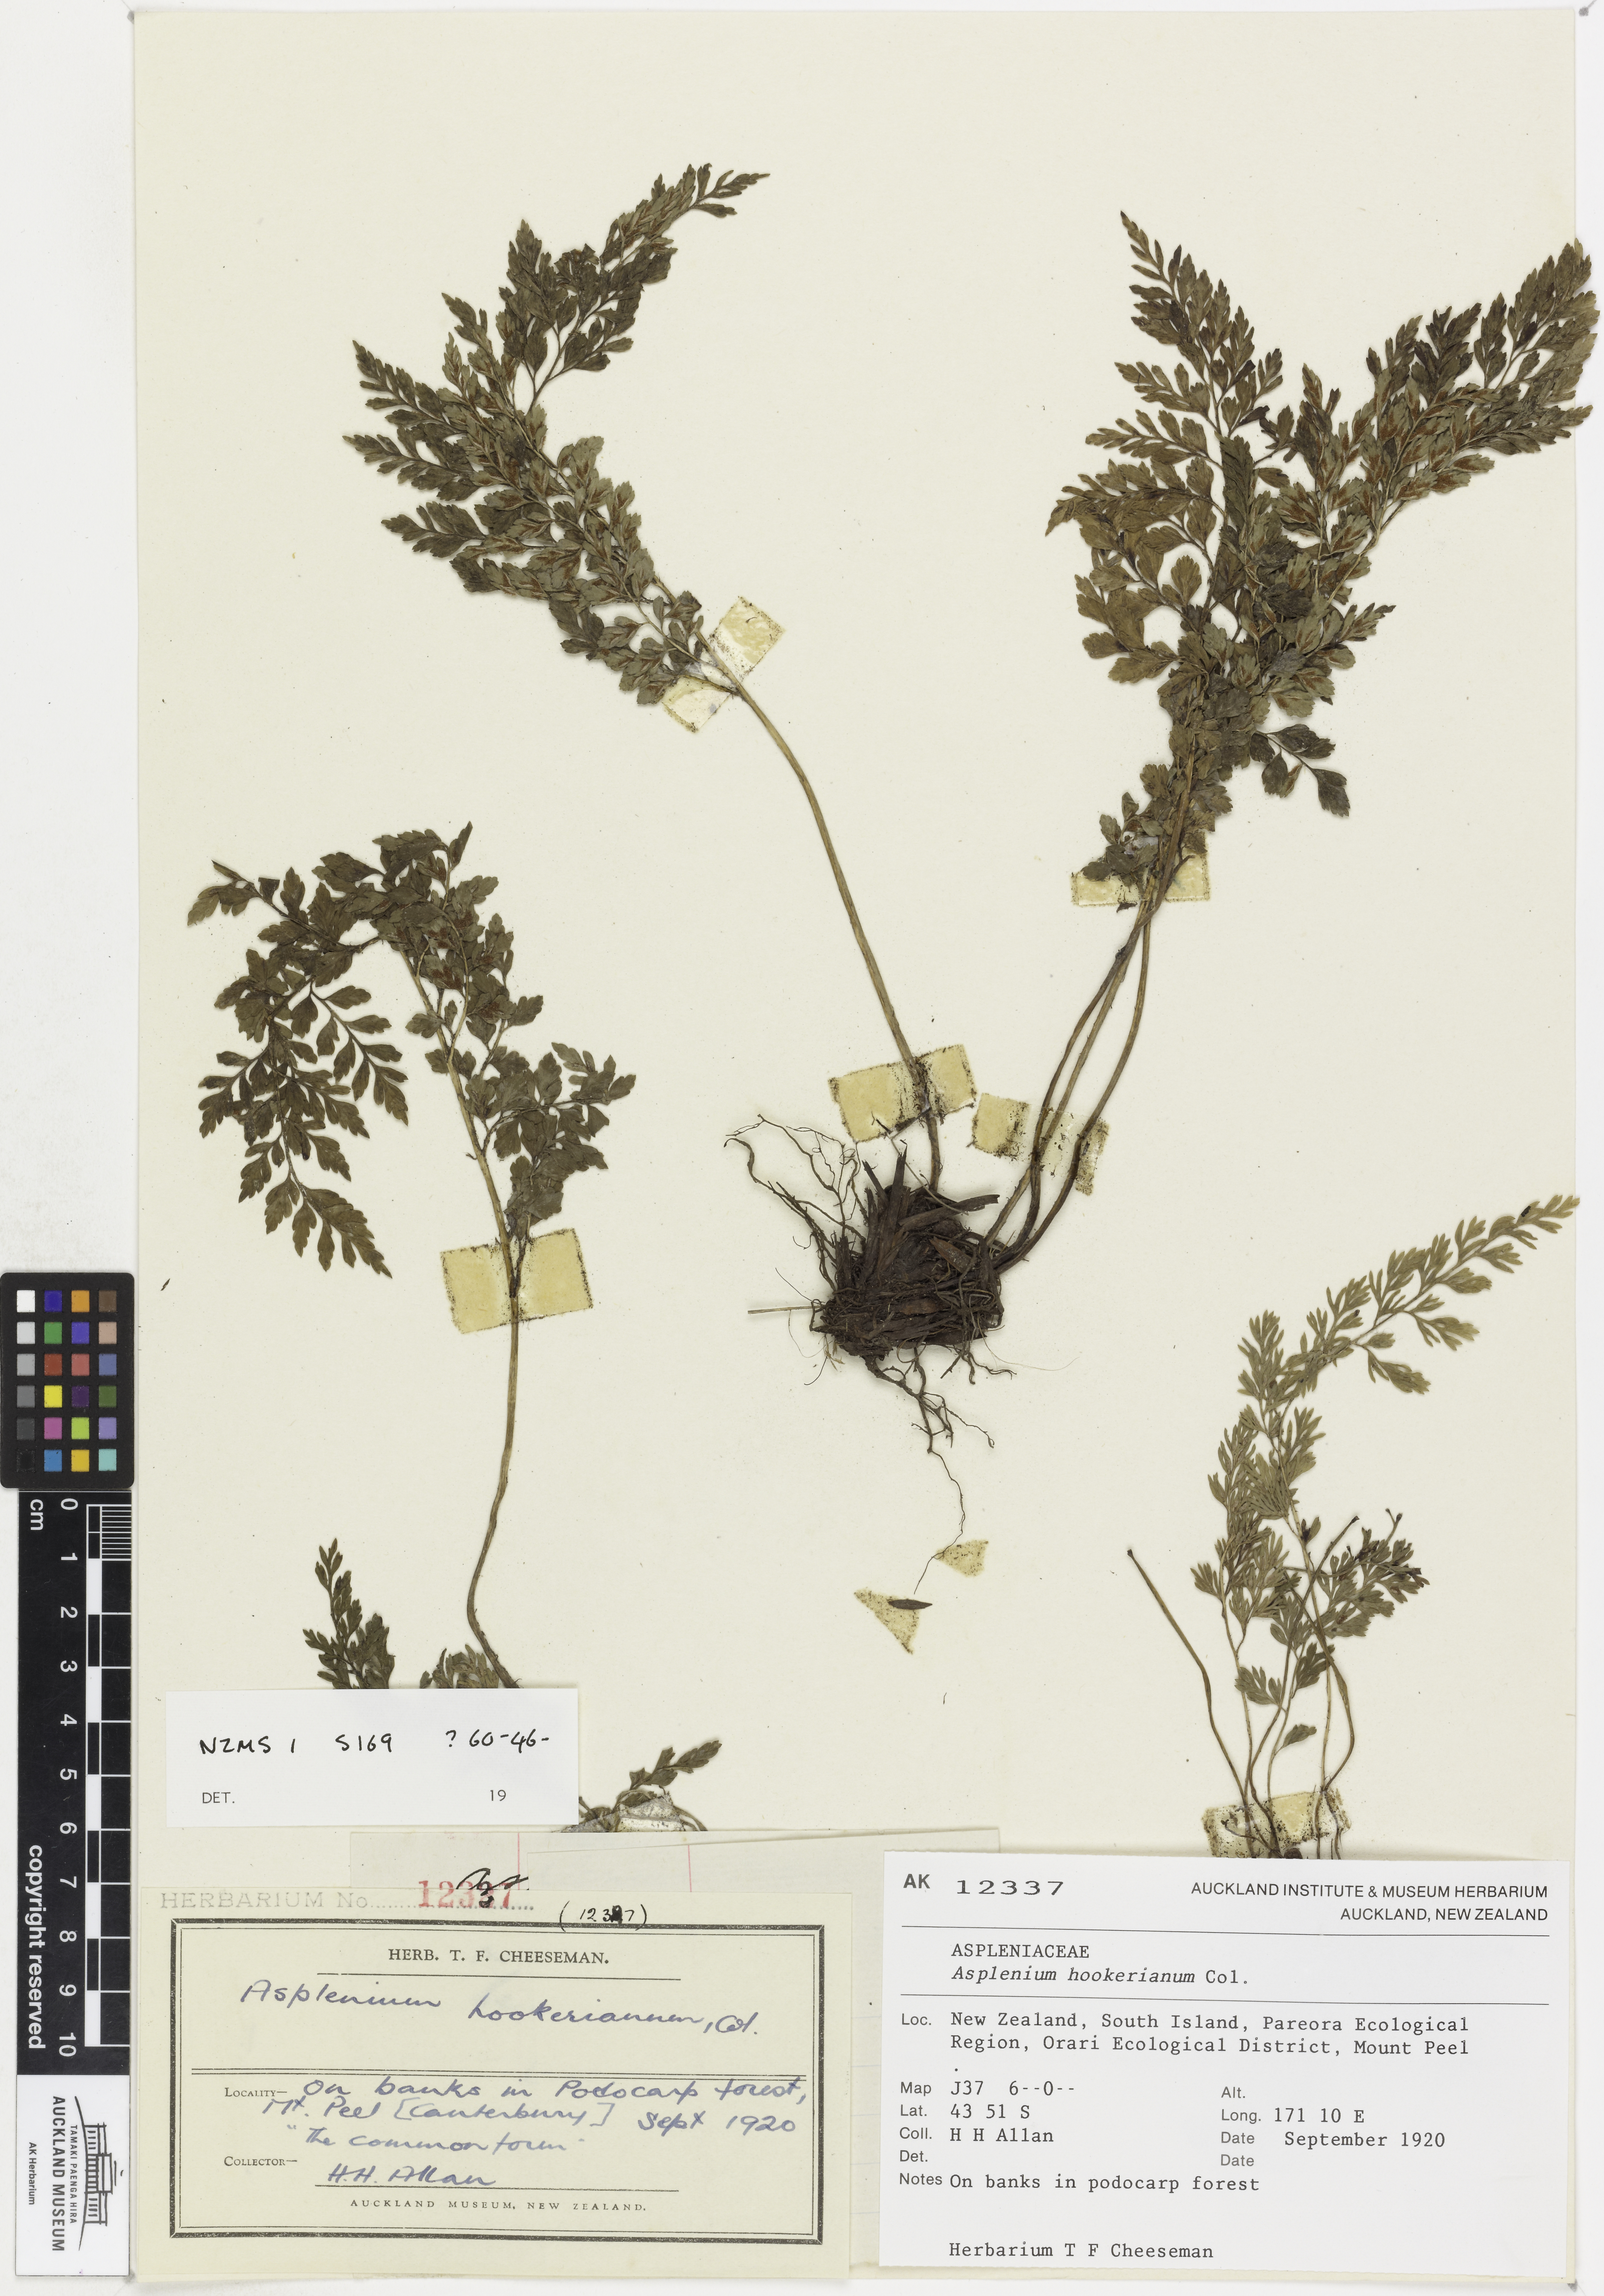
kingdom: Plantae
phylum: Tracheophyta
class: Polypodiopsida
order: Polypodiales
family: Aspleniaceae
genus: Asplenium
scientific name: Asplenium hookerianum
